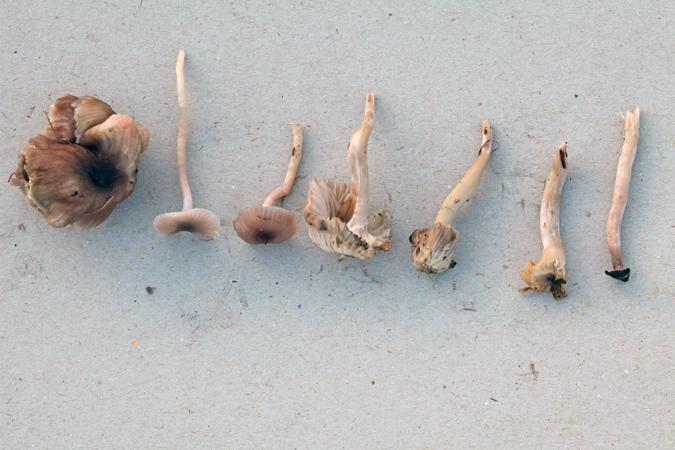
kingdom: Fungi
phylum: Basidiomycota
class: Agaricomycetes
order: Agaricales
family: Hygrophoraceae
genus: Cuphophyllus
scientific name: Cuphophyllus
